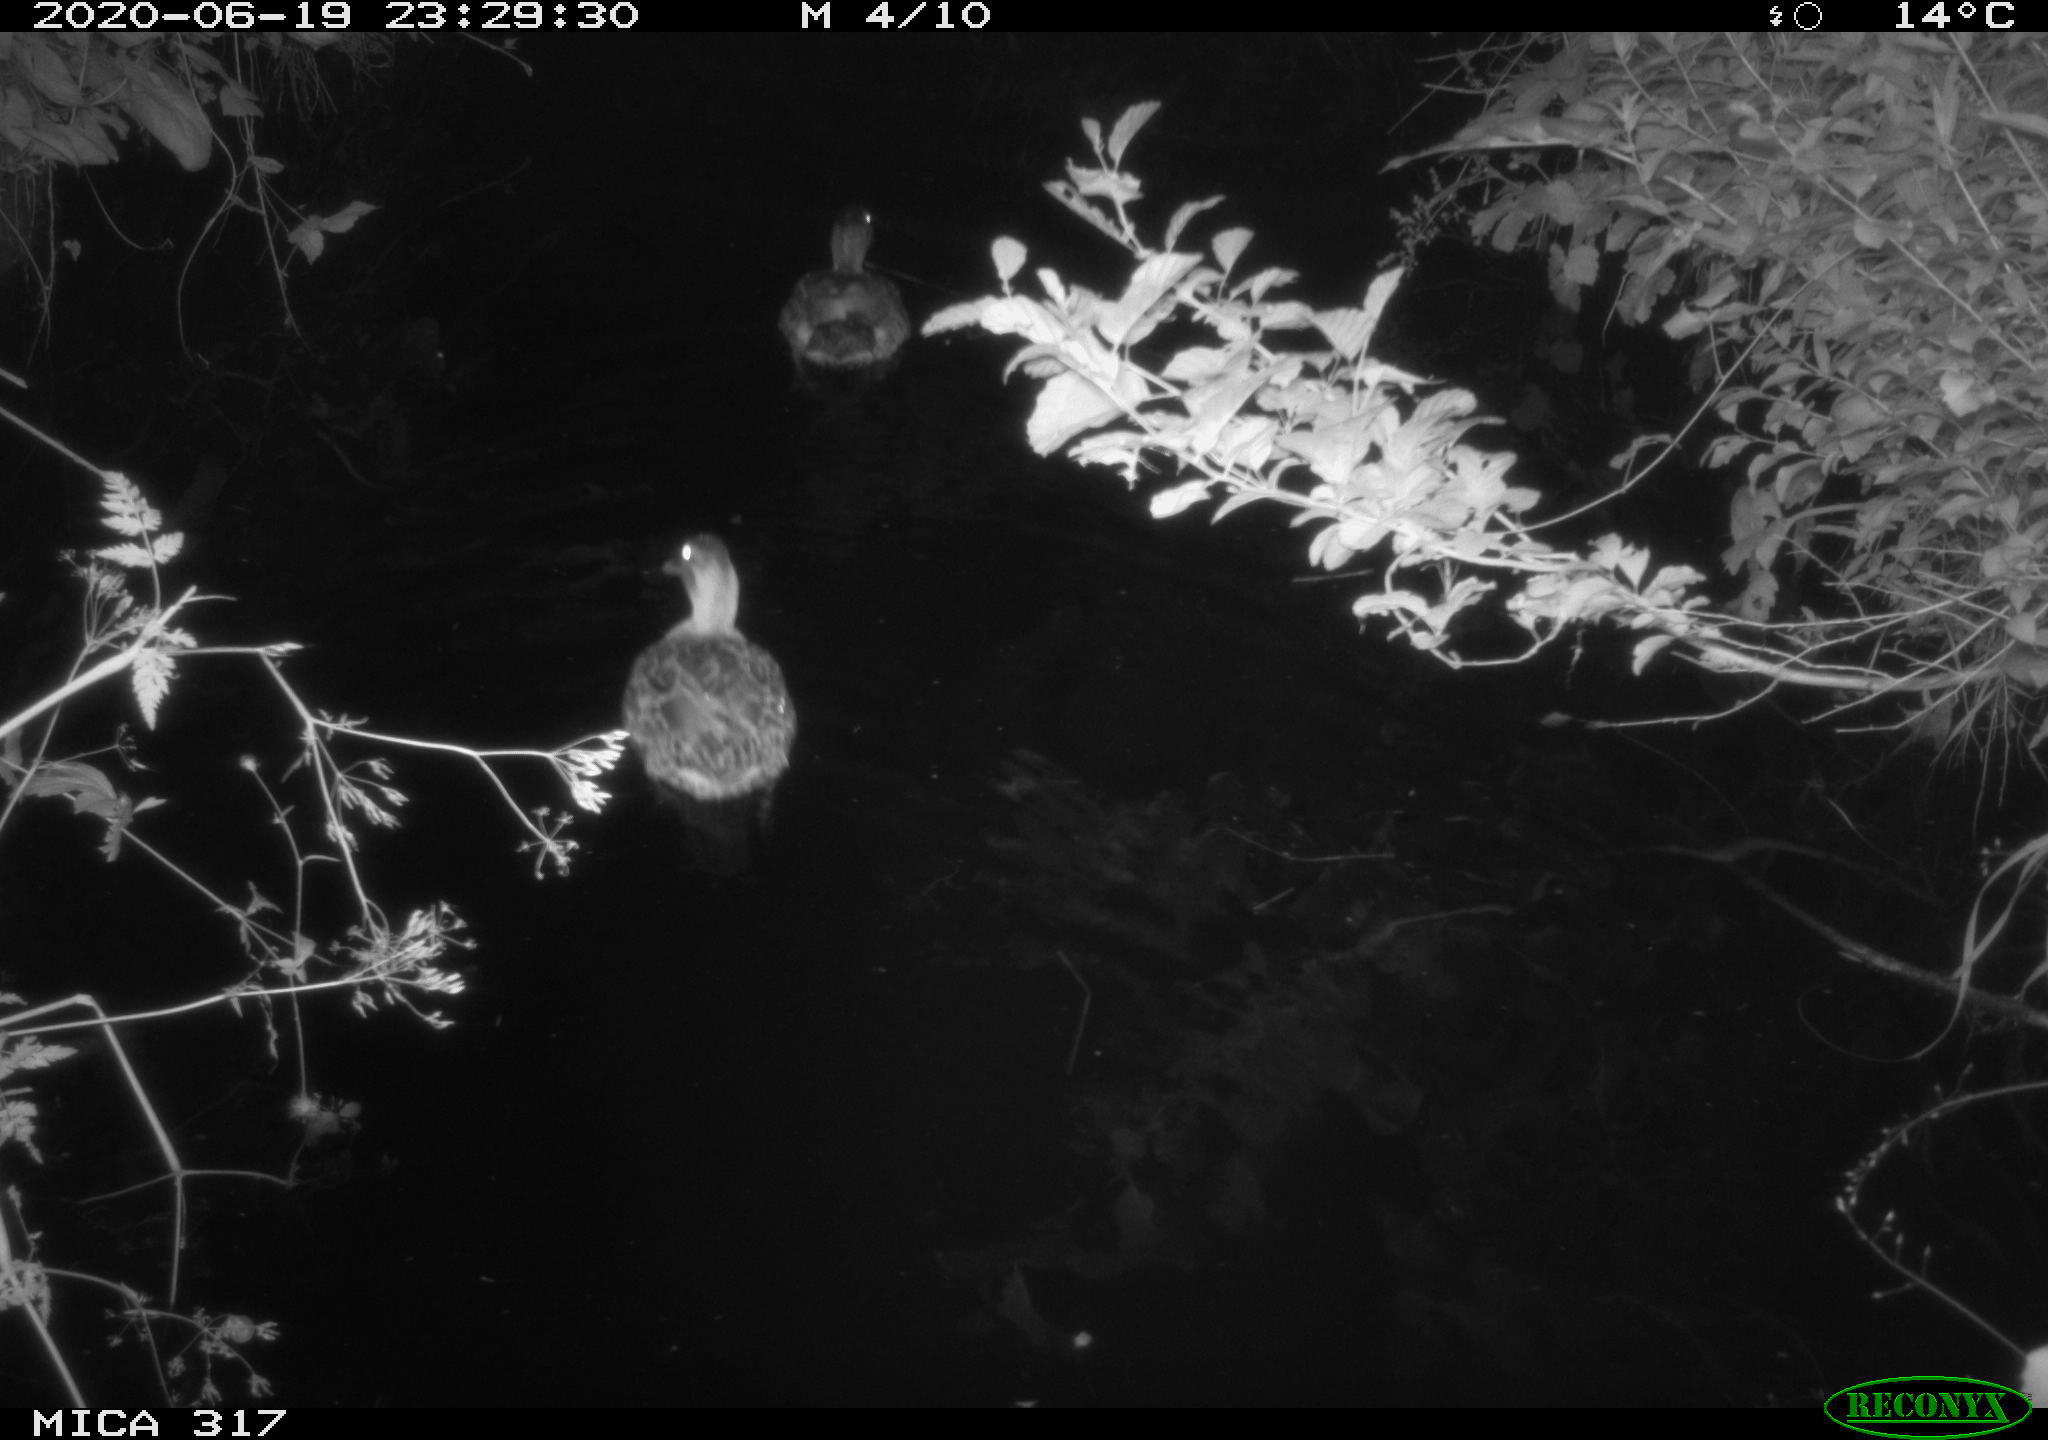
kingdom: Animalia
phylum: Chordata
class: Aves
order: Anseriformes
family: Anatidae
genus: Anas
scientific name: Anas platyrhynchos
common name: Mallard
